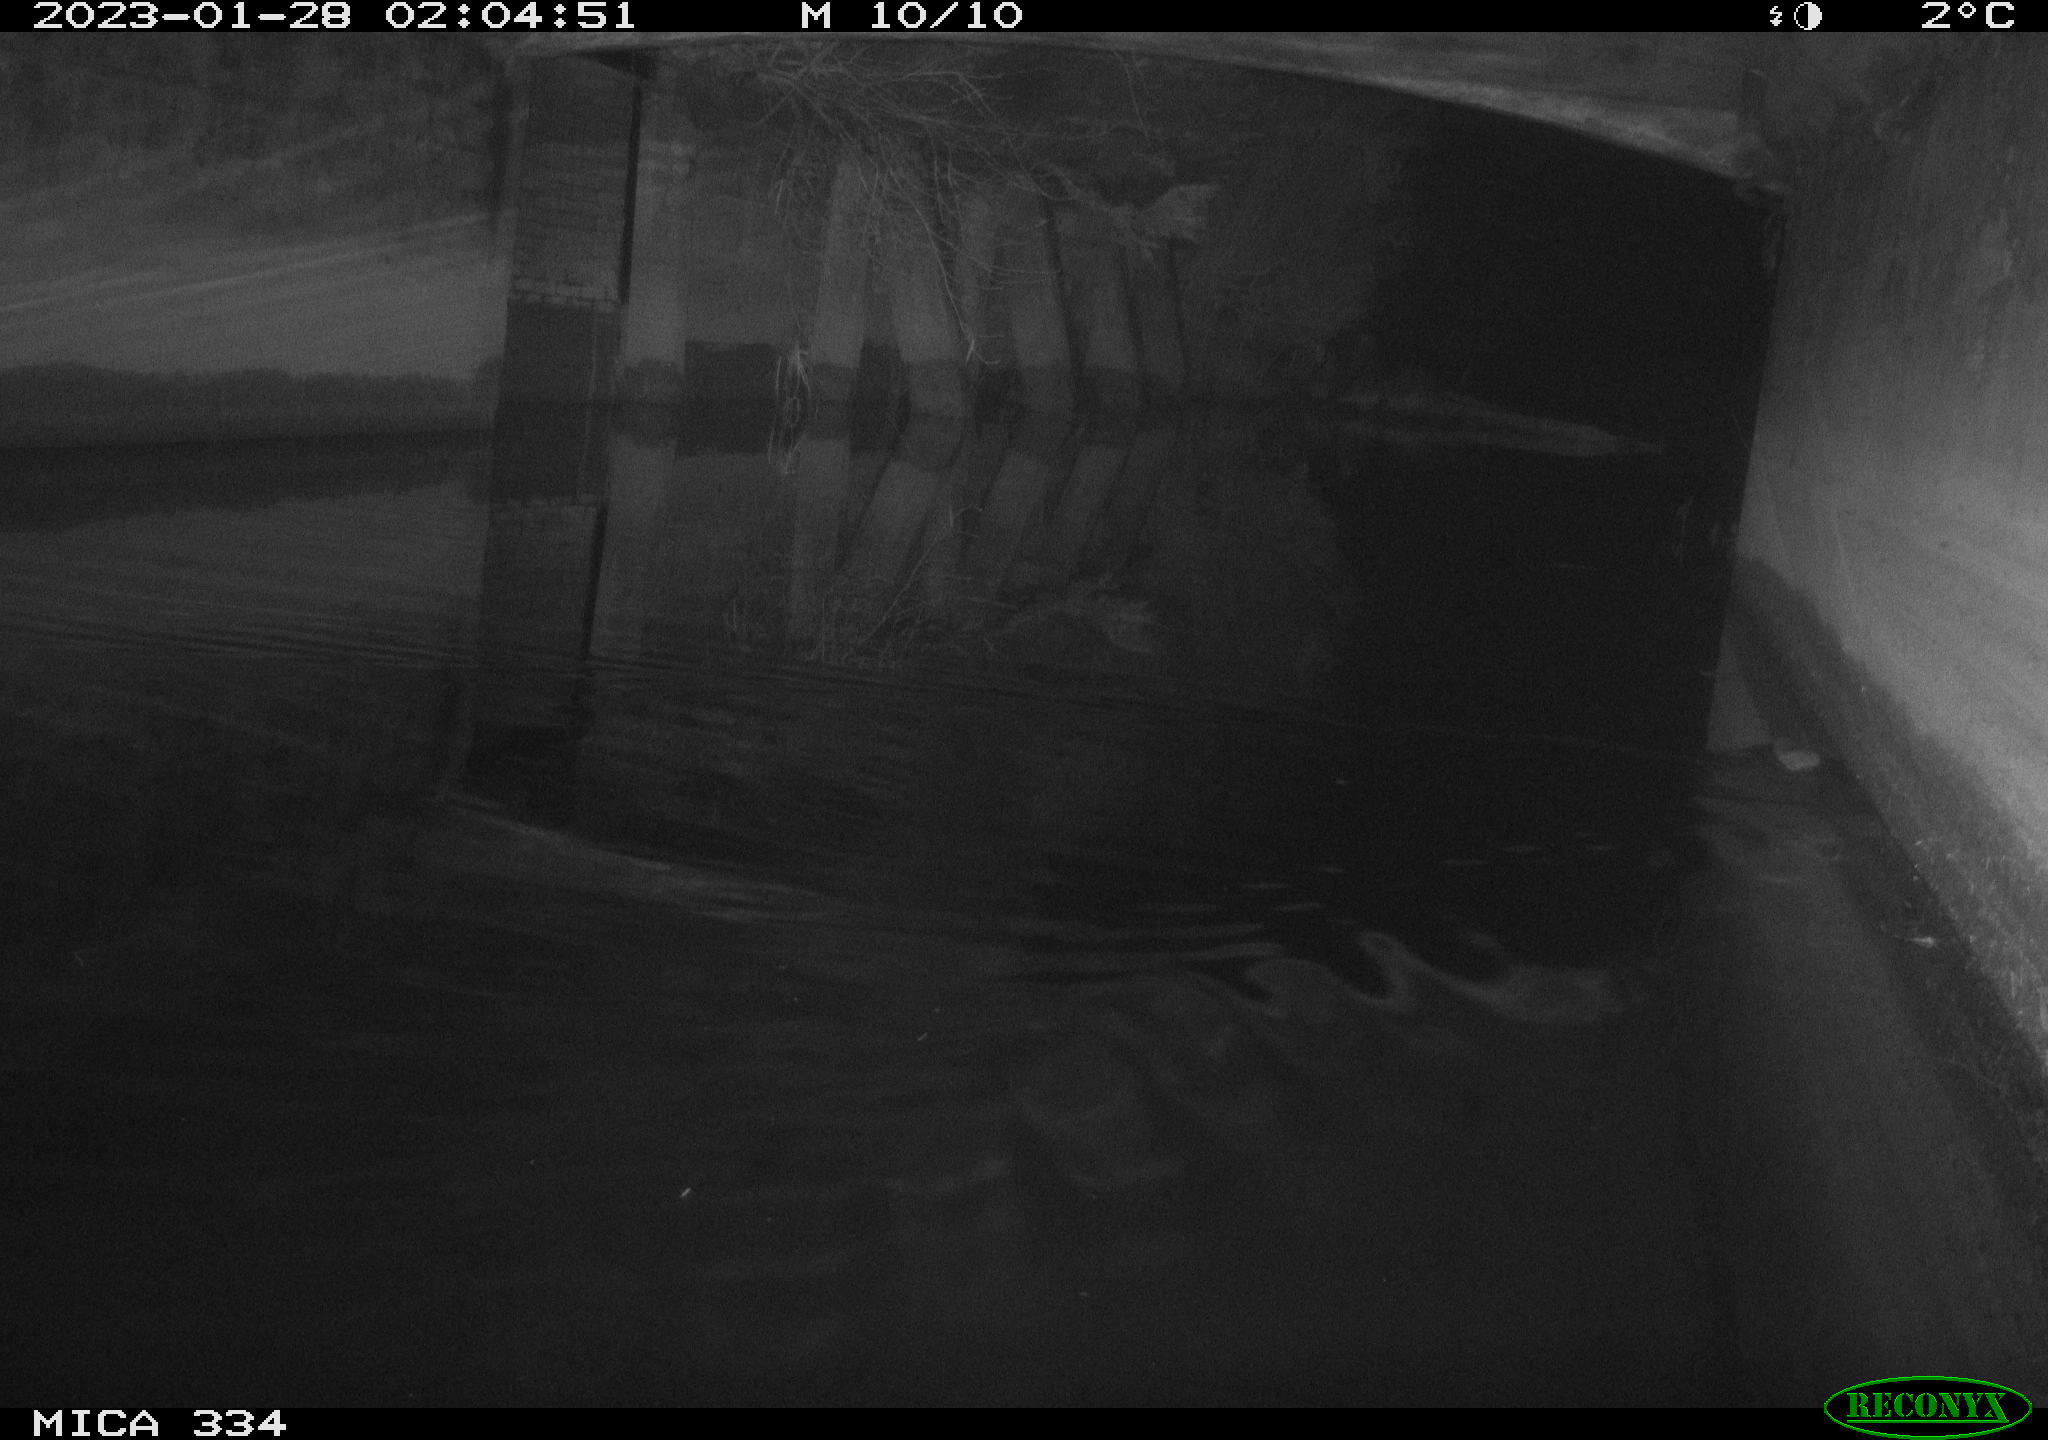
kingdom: Animalia
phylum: Chordata
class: Mammalia
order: Rodentia
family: Muridae
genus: Rattus
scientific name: Rattus norvegicus
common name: Brown rat
